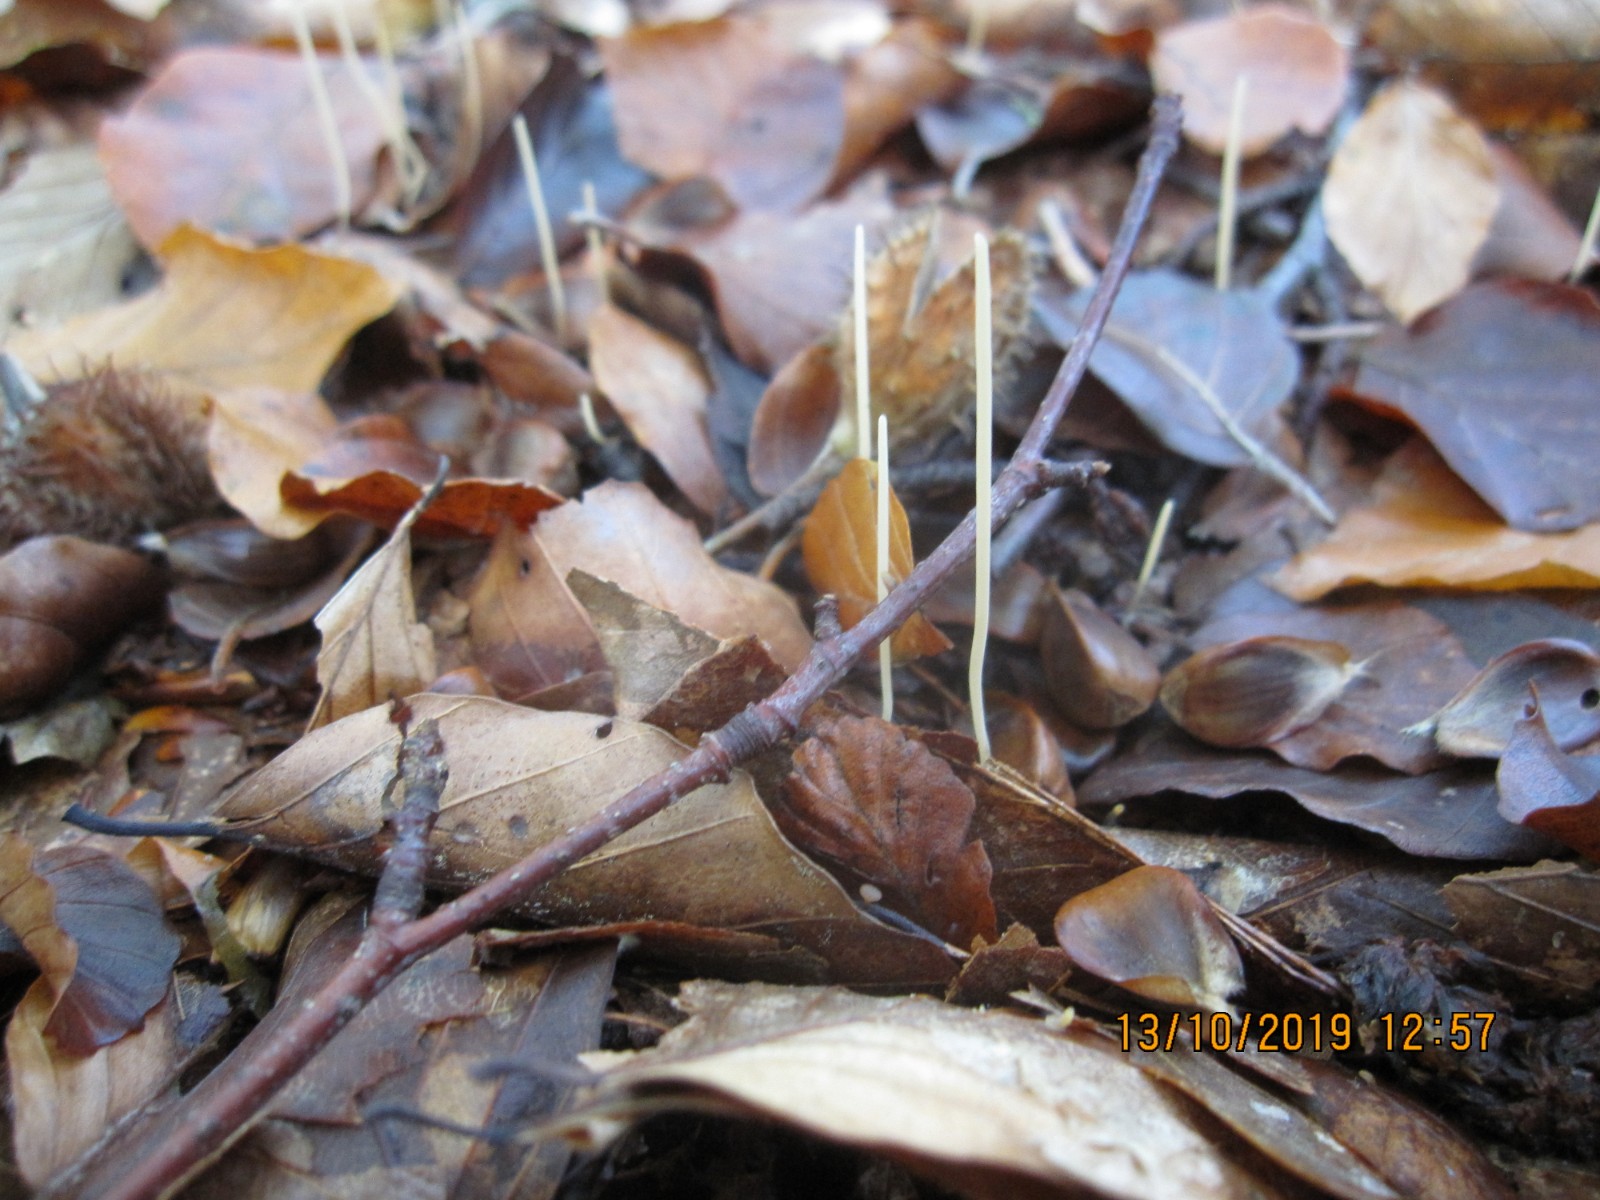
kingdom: Fungi
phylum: Basidiomycota
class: Agaricomycetes
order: Agaricales
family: Typhulaceae
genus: Typhula
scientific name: Typhula juncea
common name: trådagtig rørkølle
